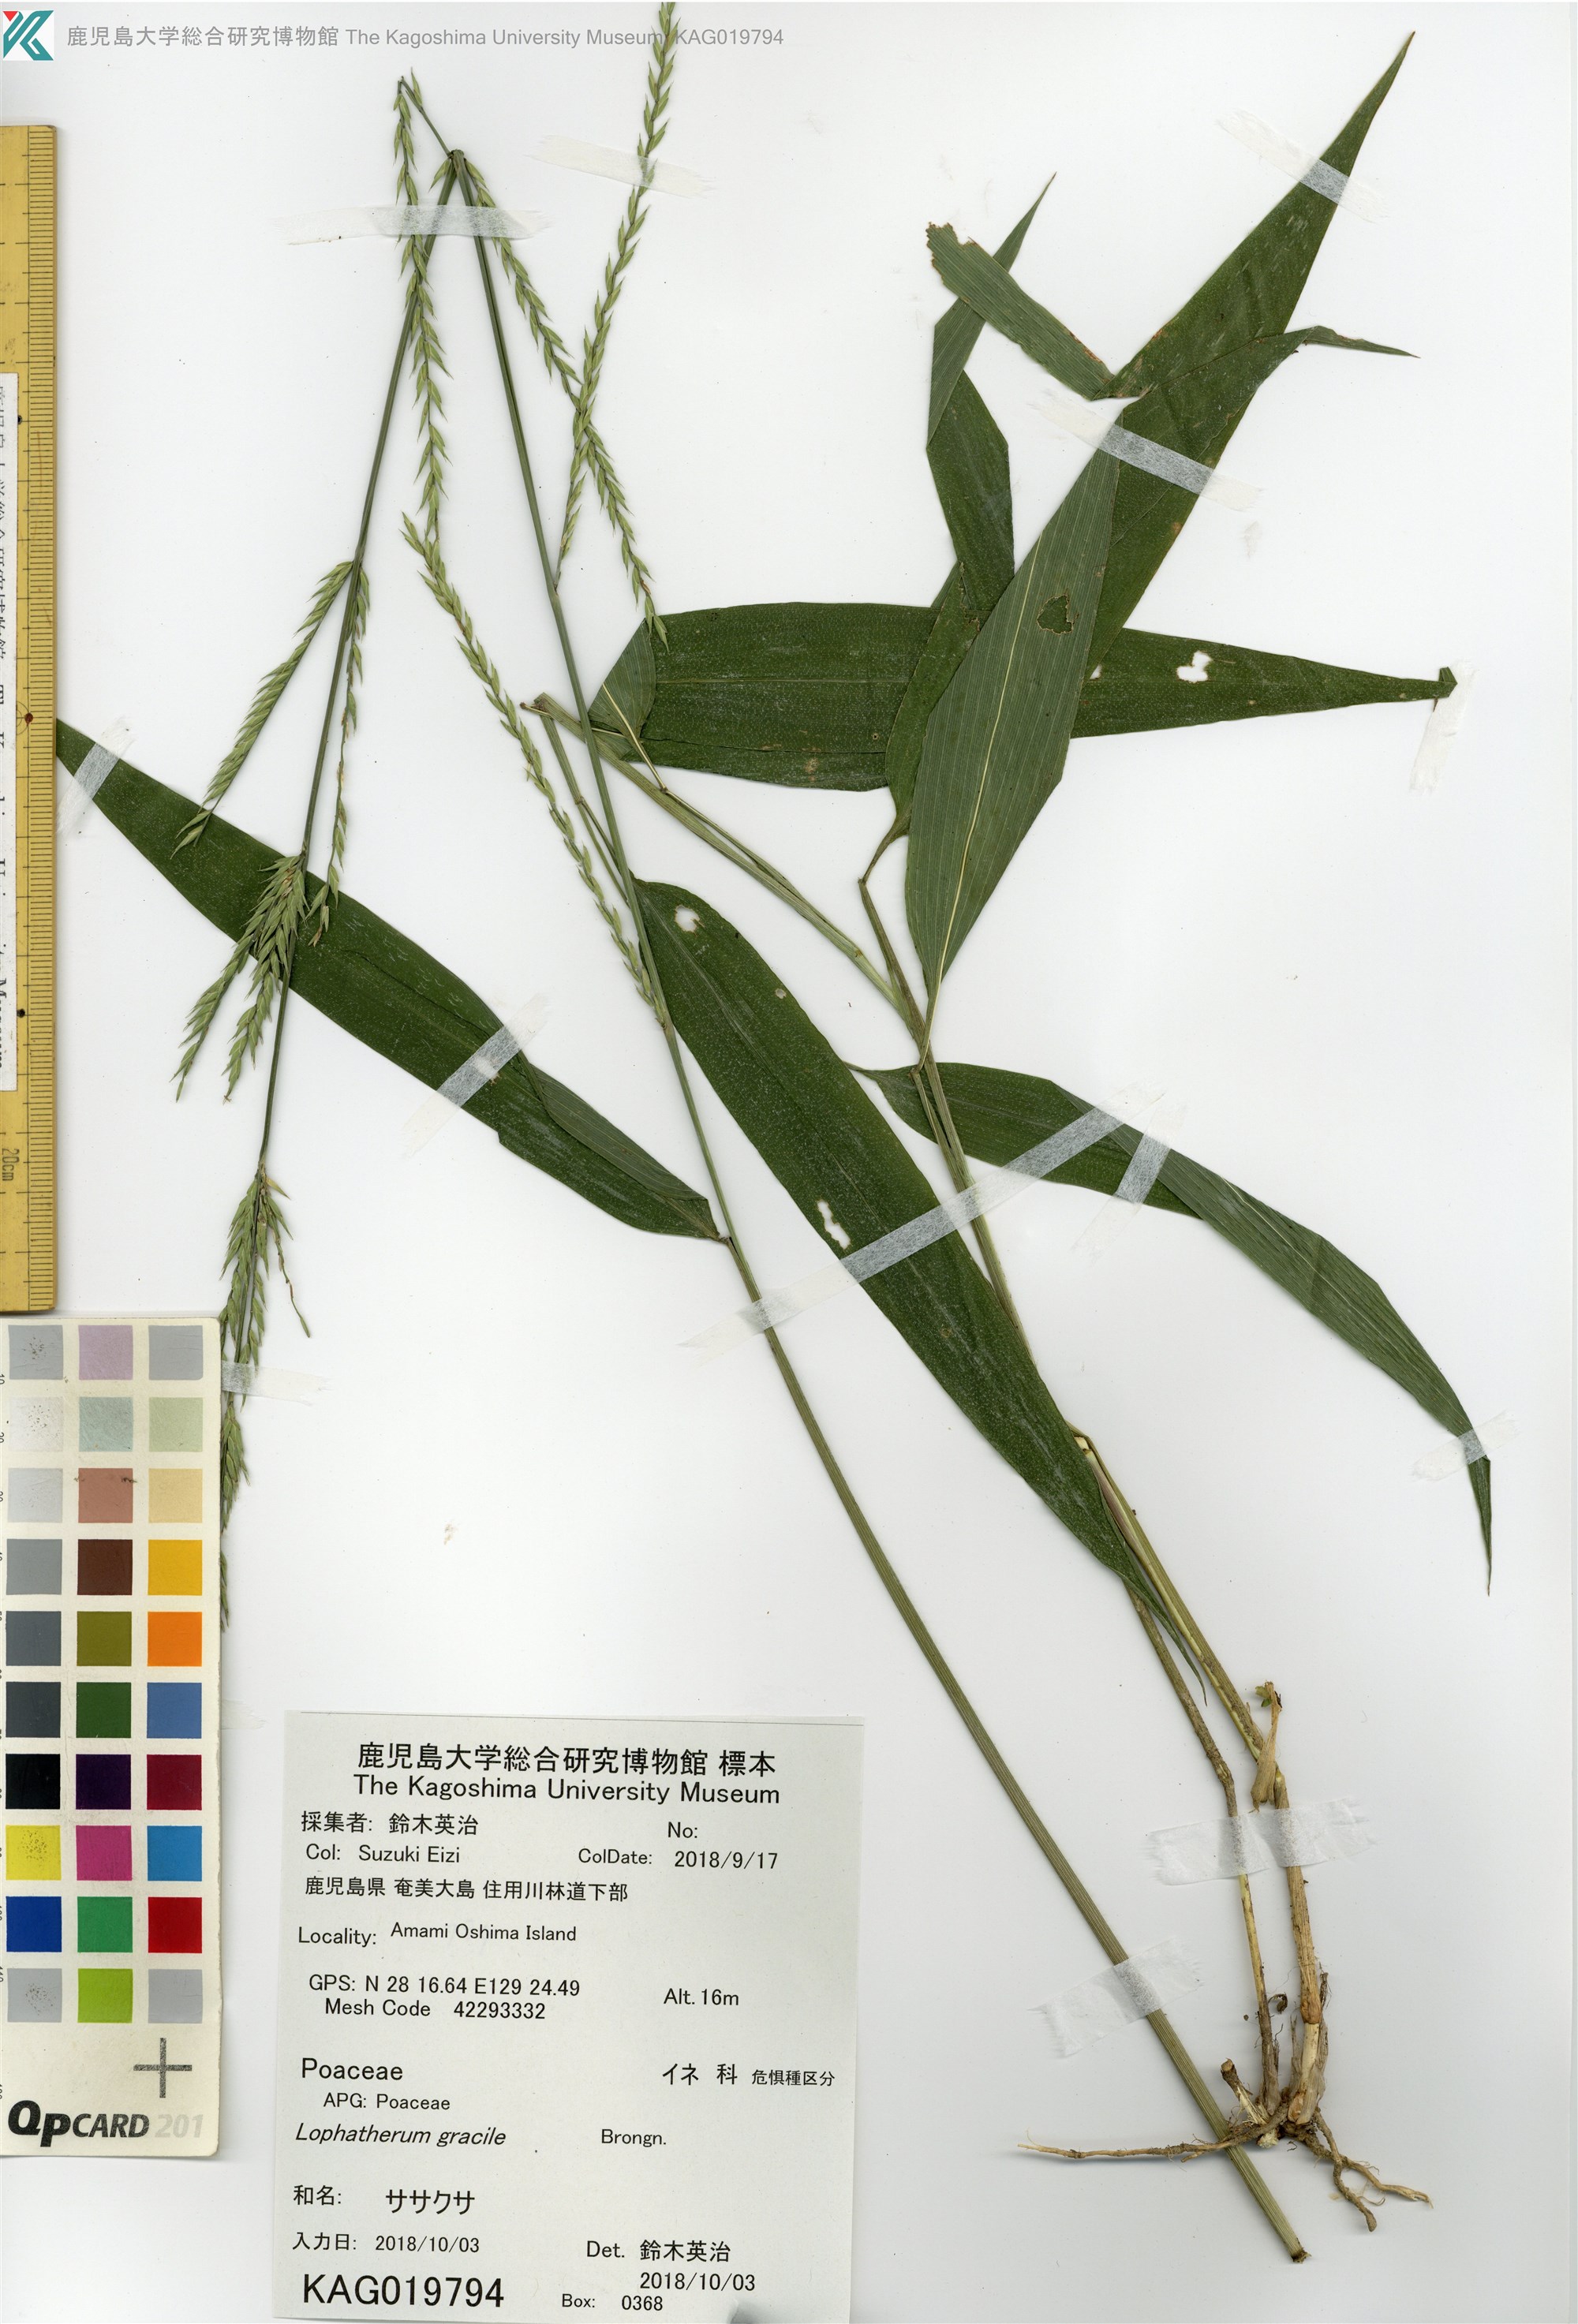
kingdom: Plantae
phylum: Tracheophyta
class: Liliopsida
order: Poales
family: Poaceae
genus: Lophatherum
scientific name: Lophatherum gracile
